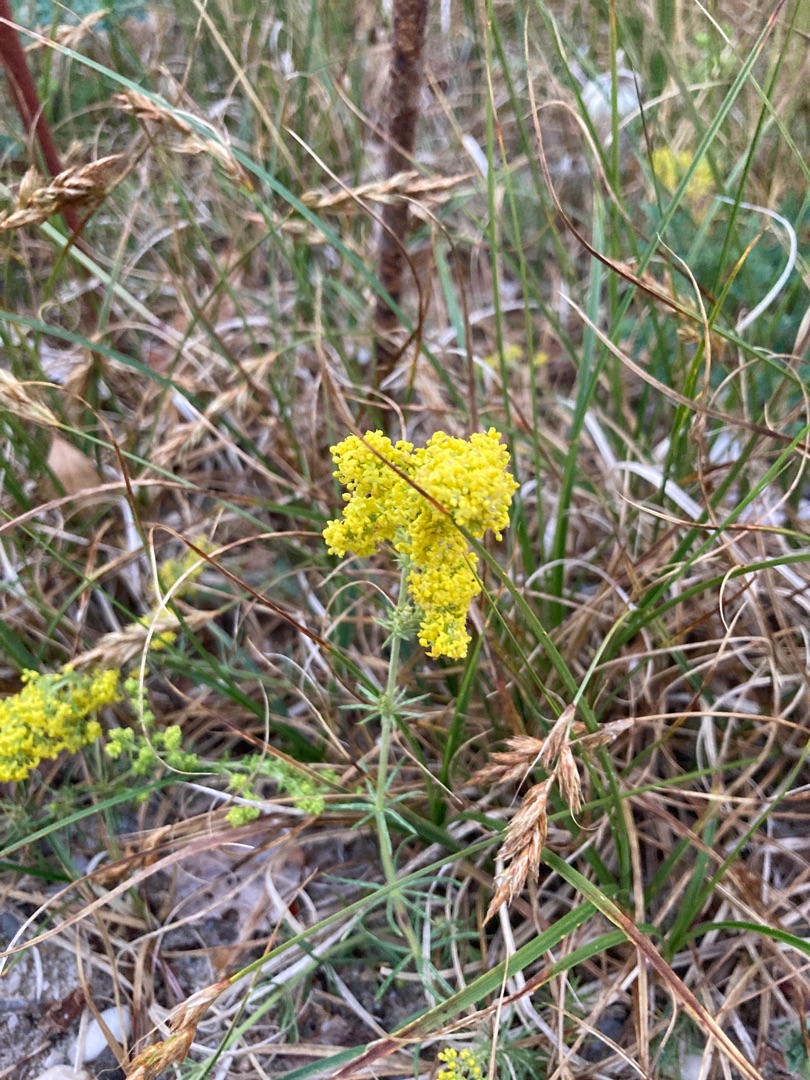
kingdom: Plantae
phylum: Tracheophyta
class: Magnoliopsida
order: Gentianales
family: Rubiaceae
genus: Galium
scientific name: Galium verum
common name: Gul snerre
